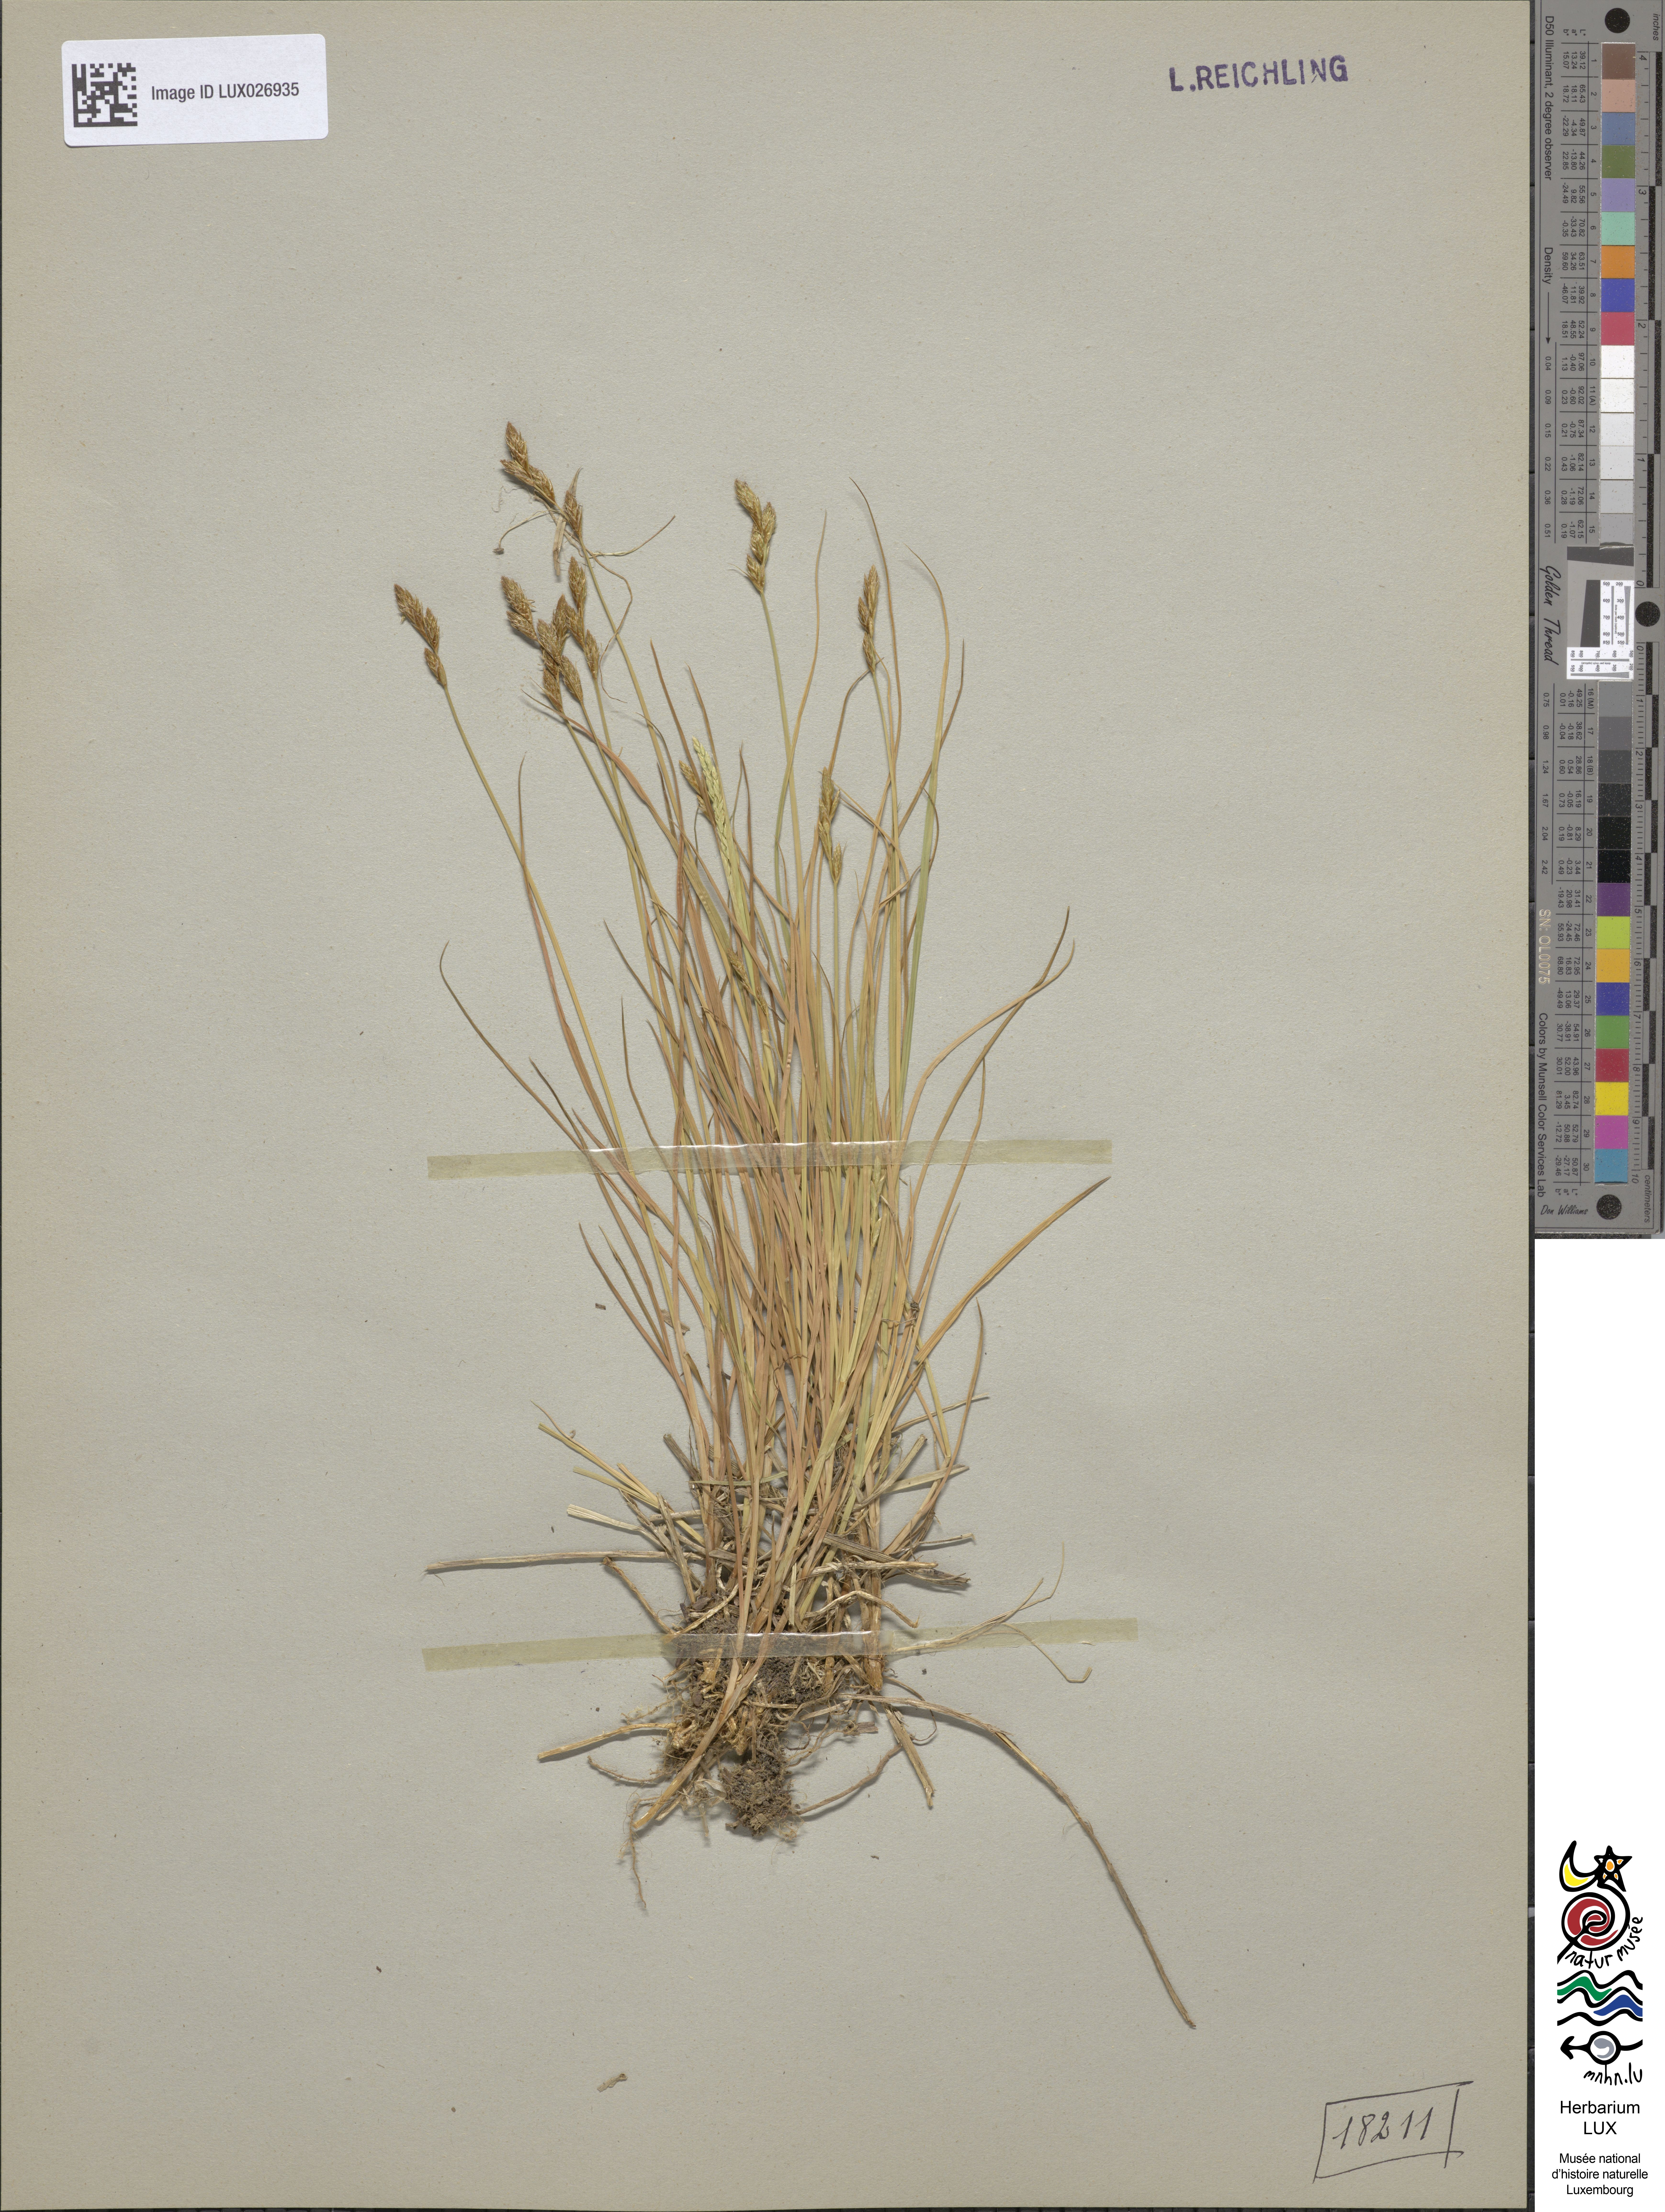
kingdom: Plantae
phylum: Tracheophyta
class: Liliopsida
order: Poales
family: Cyperaceae
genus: Carex
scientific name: Carex leporina
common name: Oval sedge
